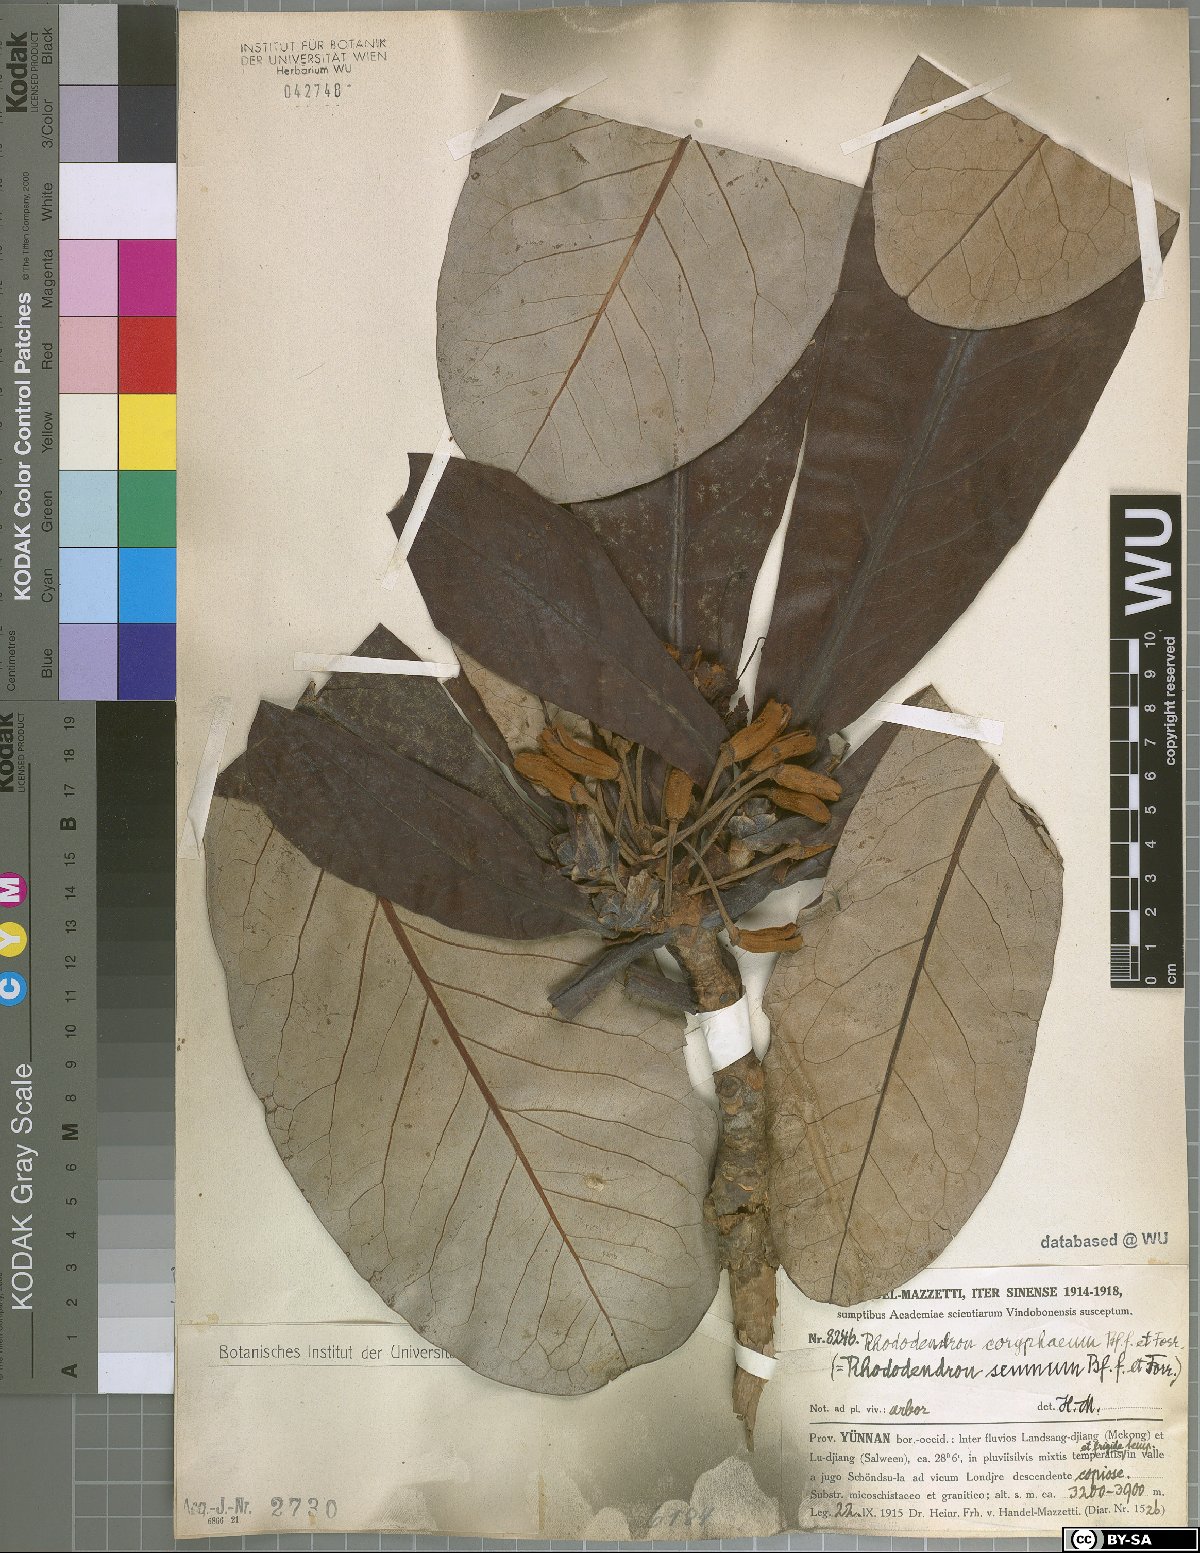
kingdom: Plantae
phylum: Tracheophyta
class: Magnoliopsida
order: Ericales
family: Ericaceae
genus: Rhododendron
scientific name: Rhododendron praestans
